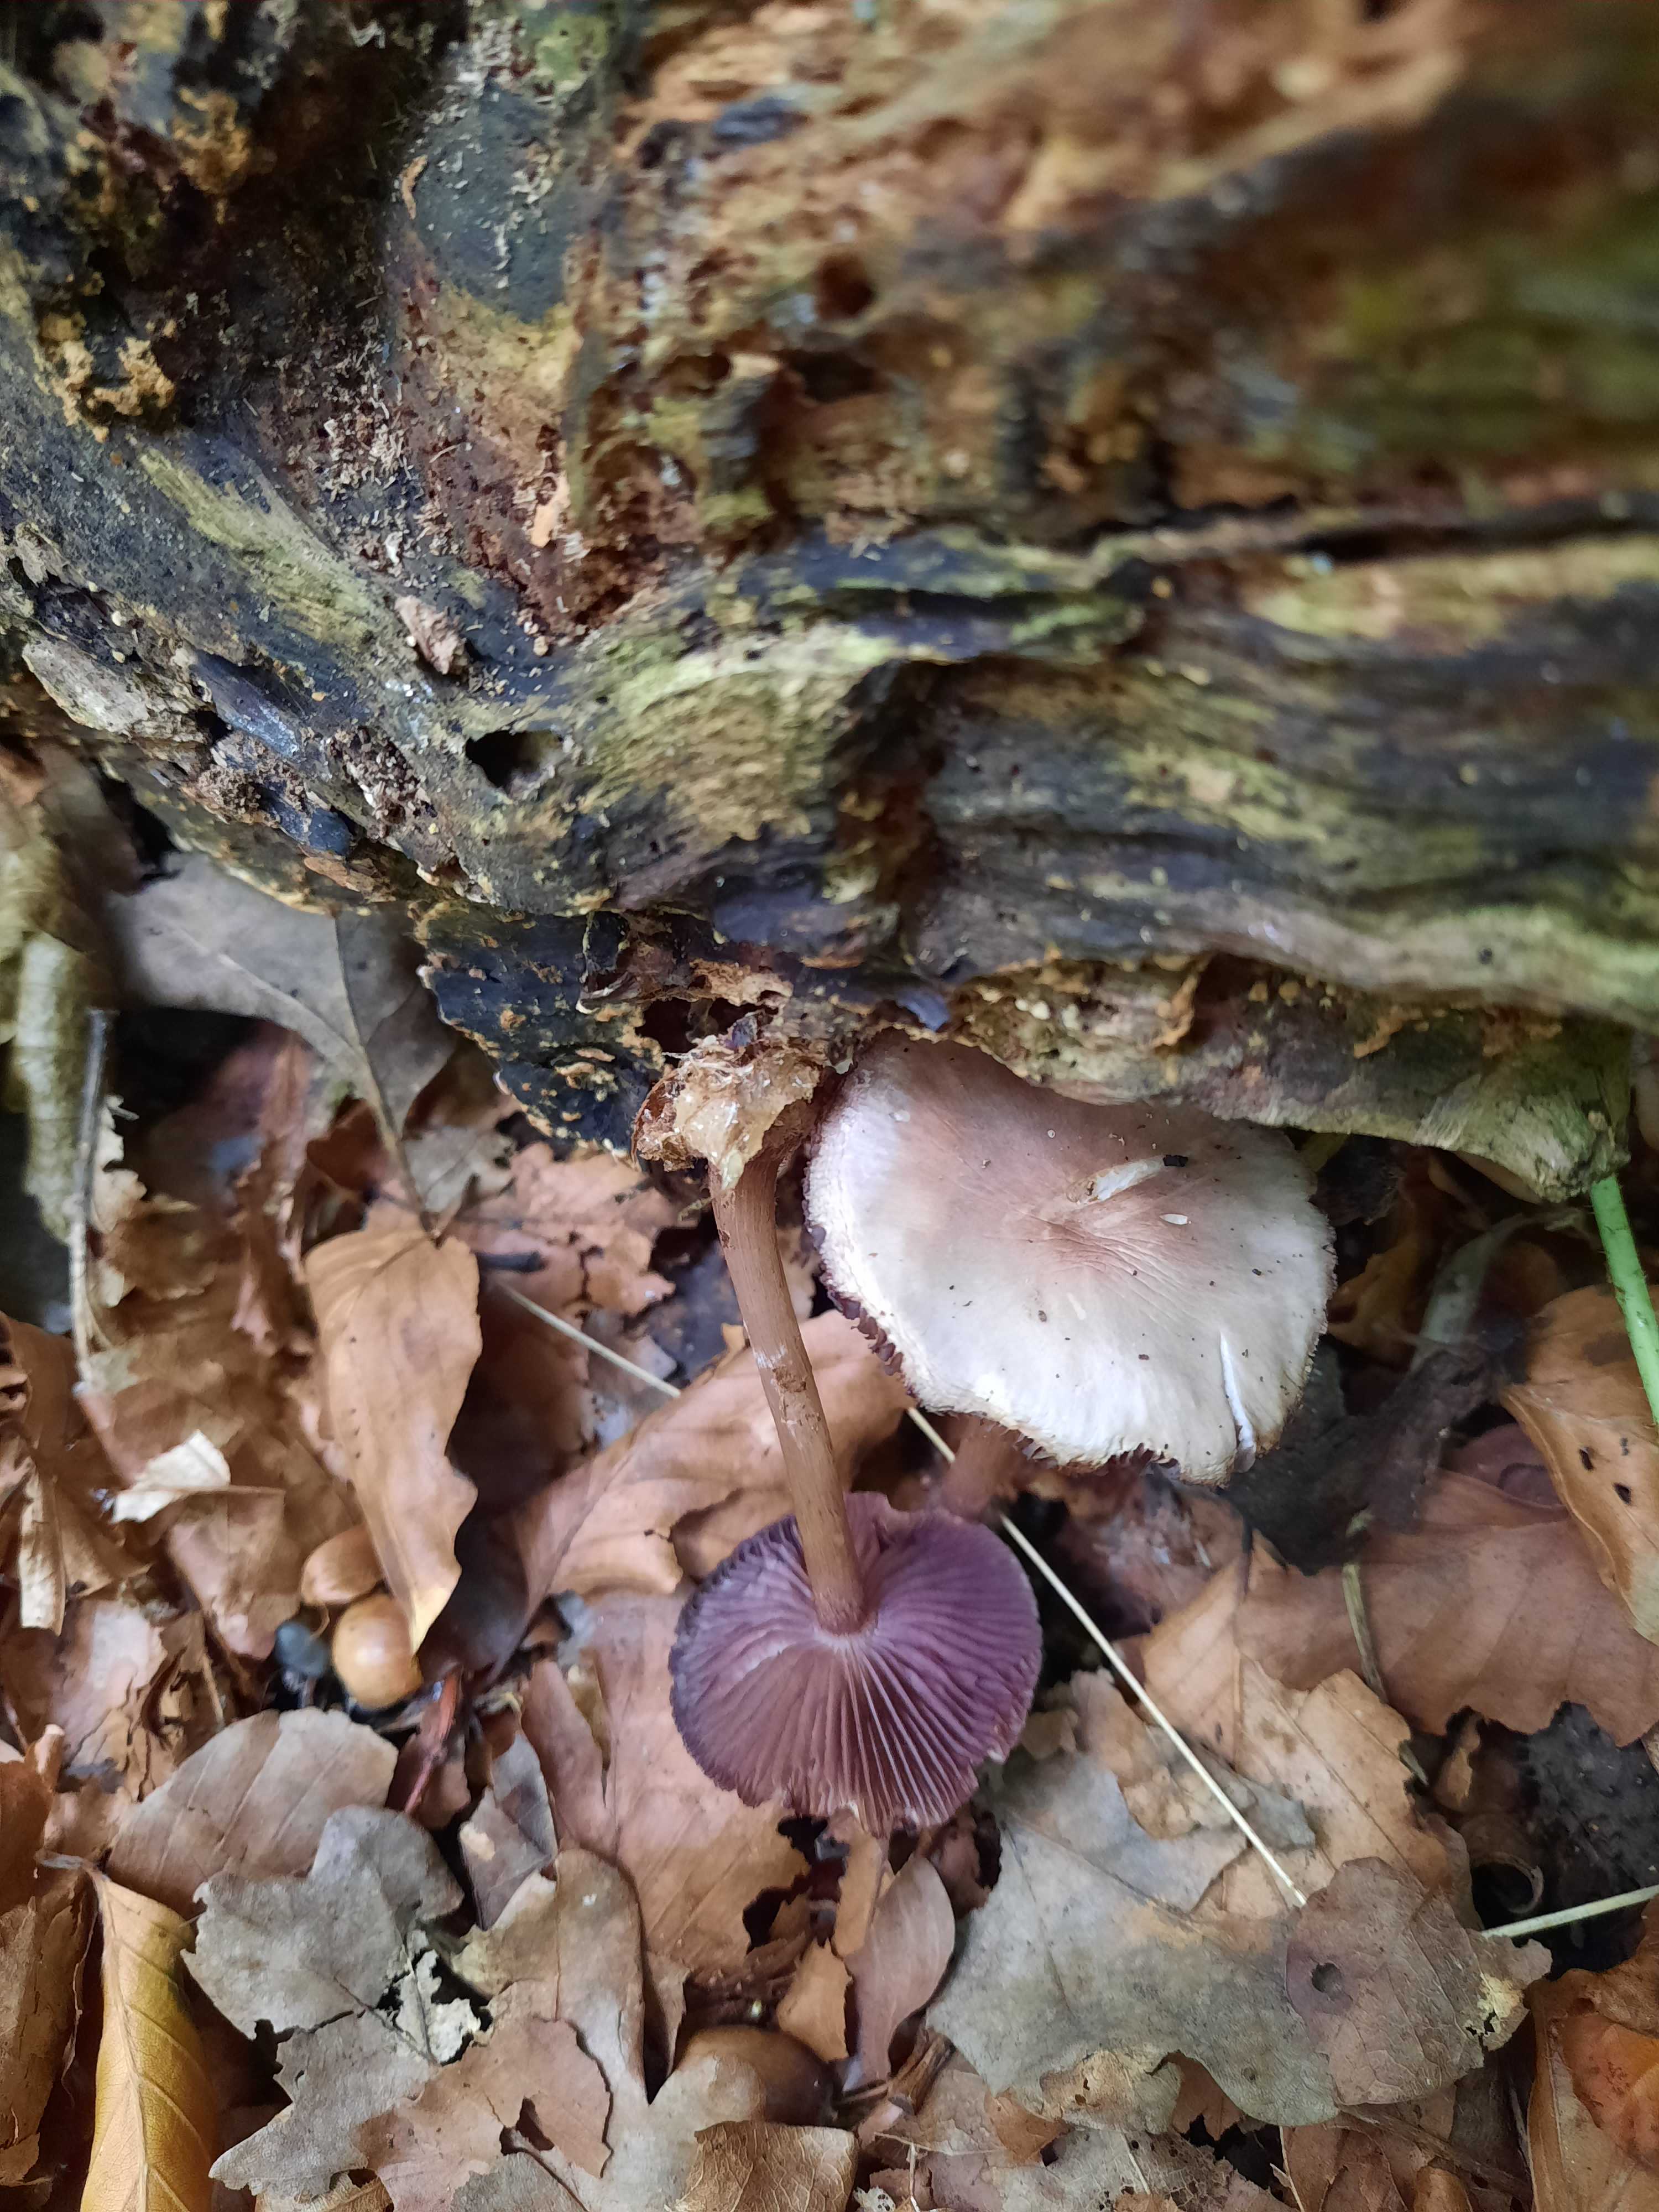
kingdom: Fungi
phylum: Basidiomycota
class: Agaricomycetes
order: Agaricales
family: Mycenaceae
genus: Mycena
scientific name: Mycena pelianthina
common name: mørkbladet huesvamp
